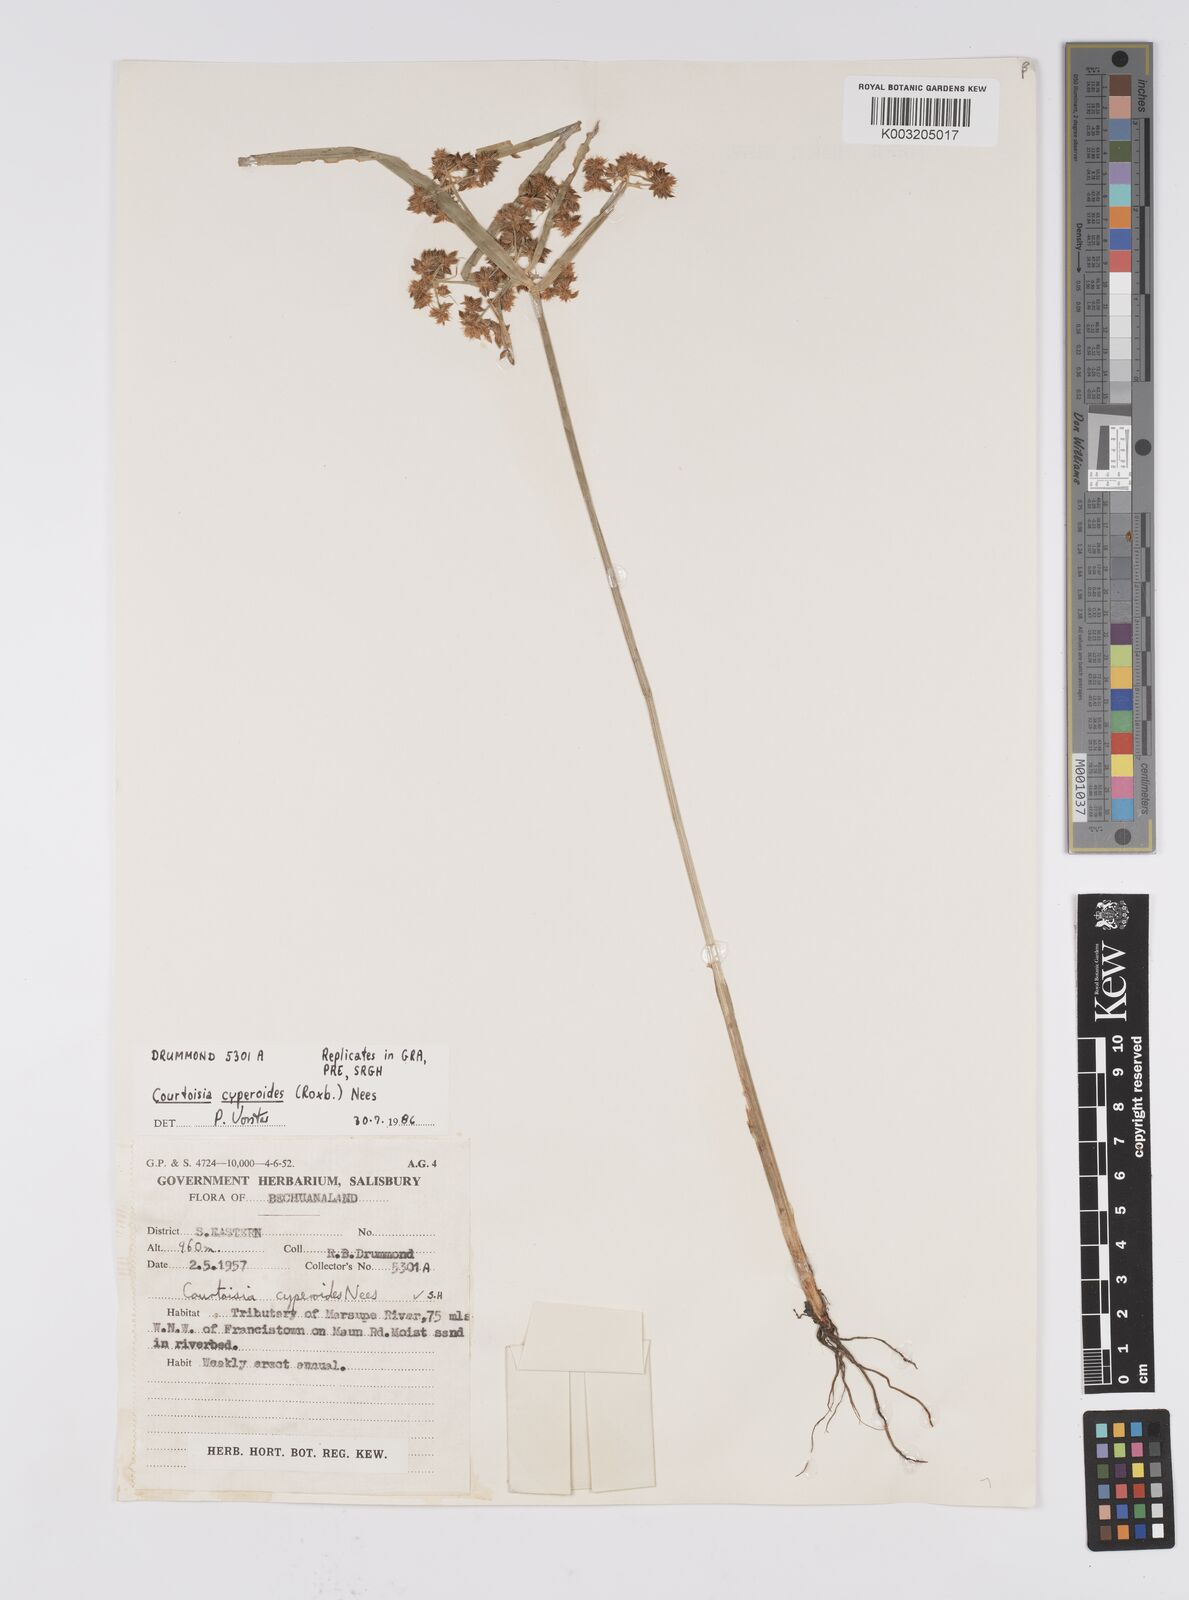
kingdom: Plantae
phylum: Tracheophyta
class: Liliopsida
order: Poales
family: Cyperaceae
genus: Cyperus
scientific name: Cyperus cyperoides
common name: Pacific island flat sedge
